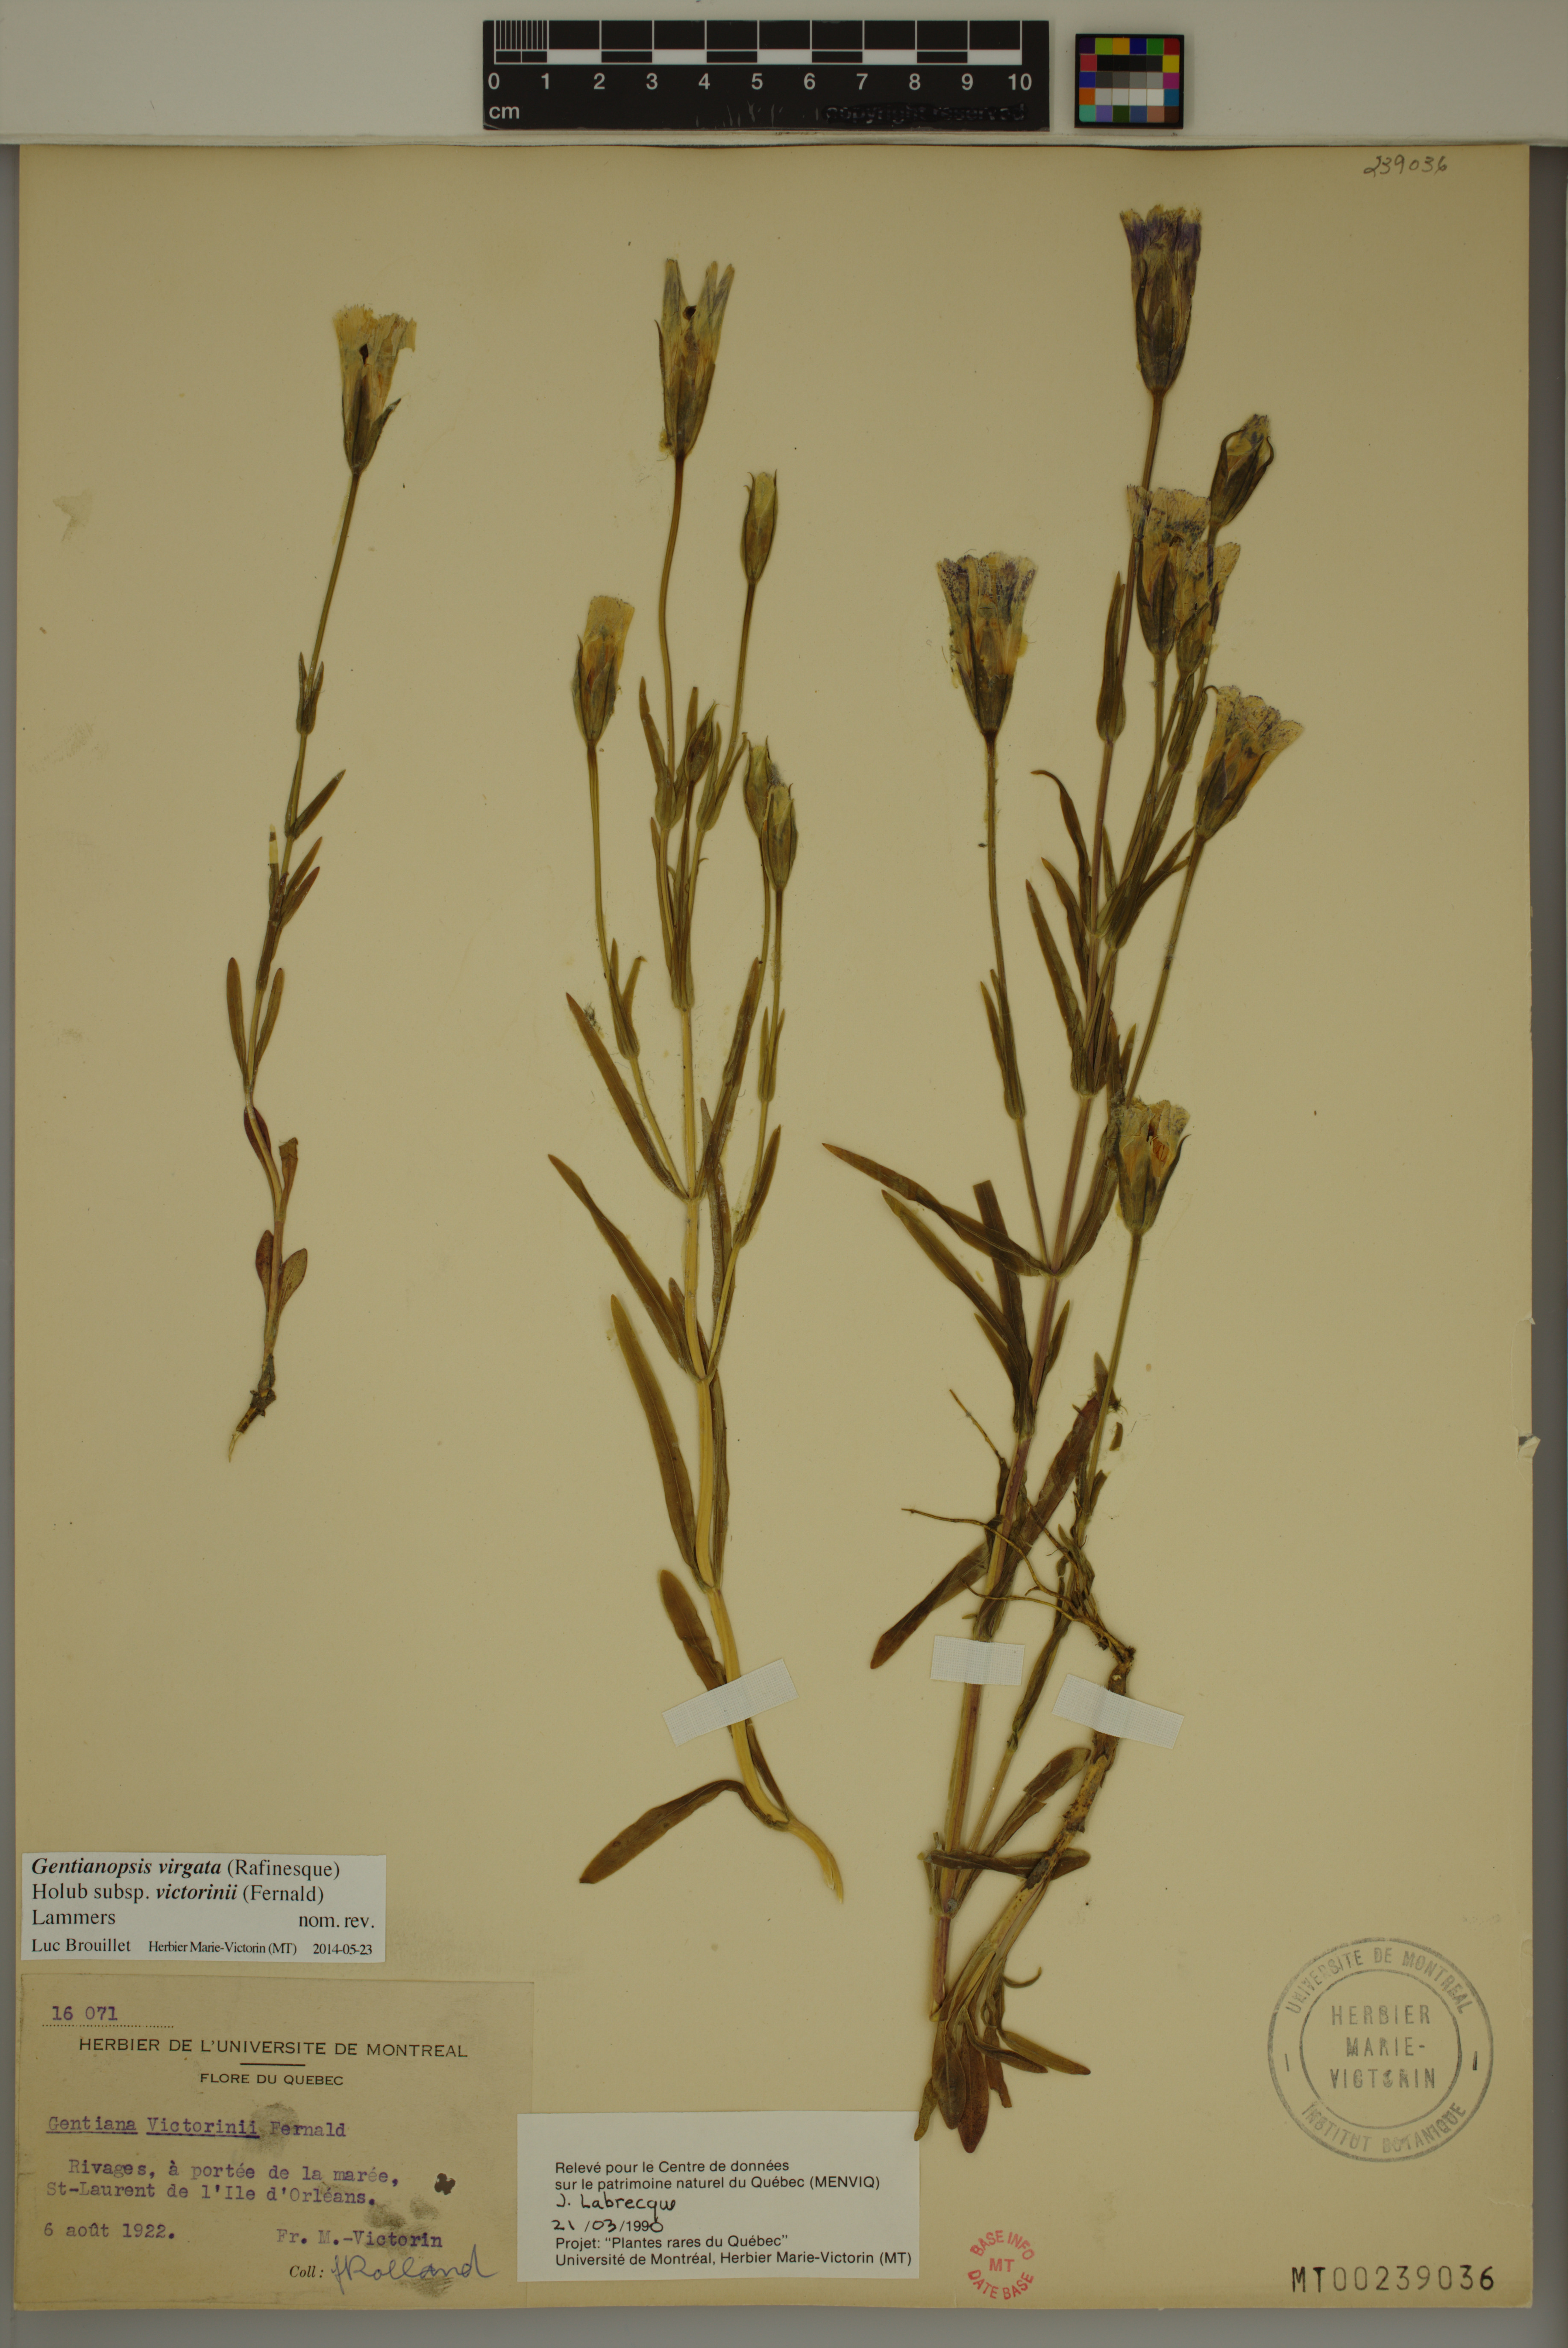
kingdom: Plantae
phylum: Tracheophyta
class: Magnoliopsida
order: Gentianales
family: Gentianaceae
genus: Gentianopsis
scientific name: Gentianopsis victorinii
